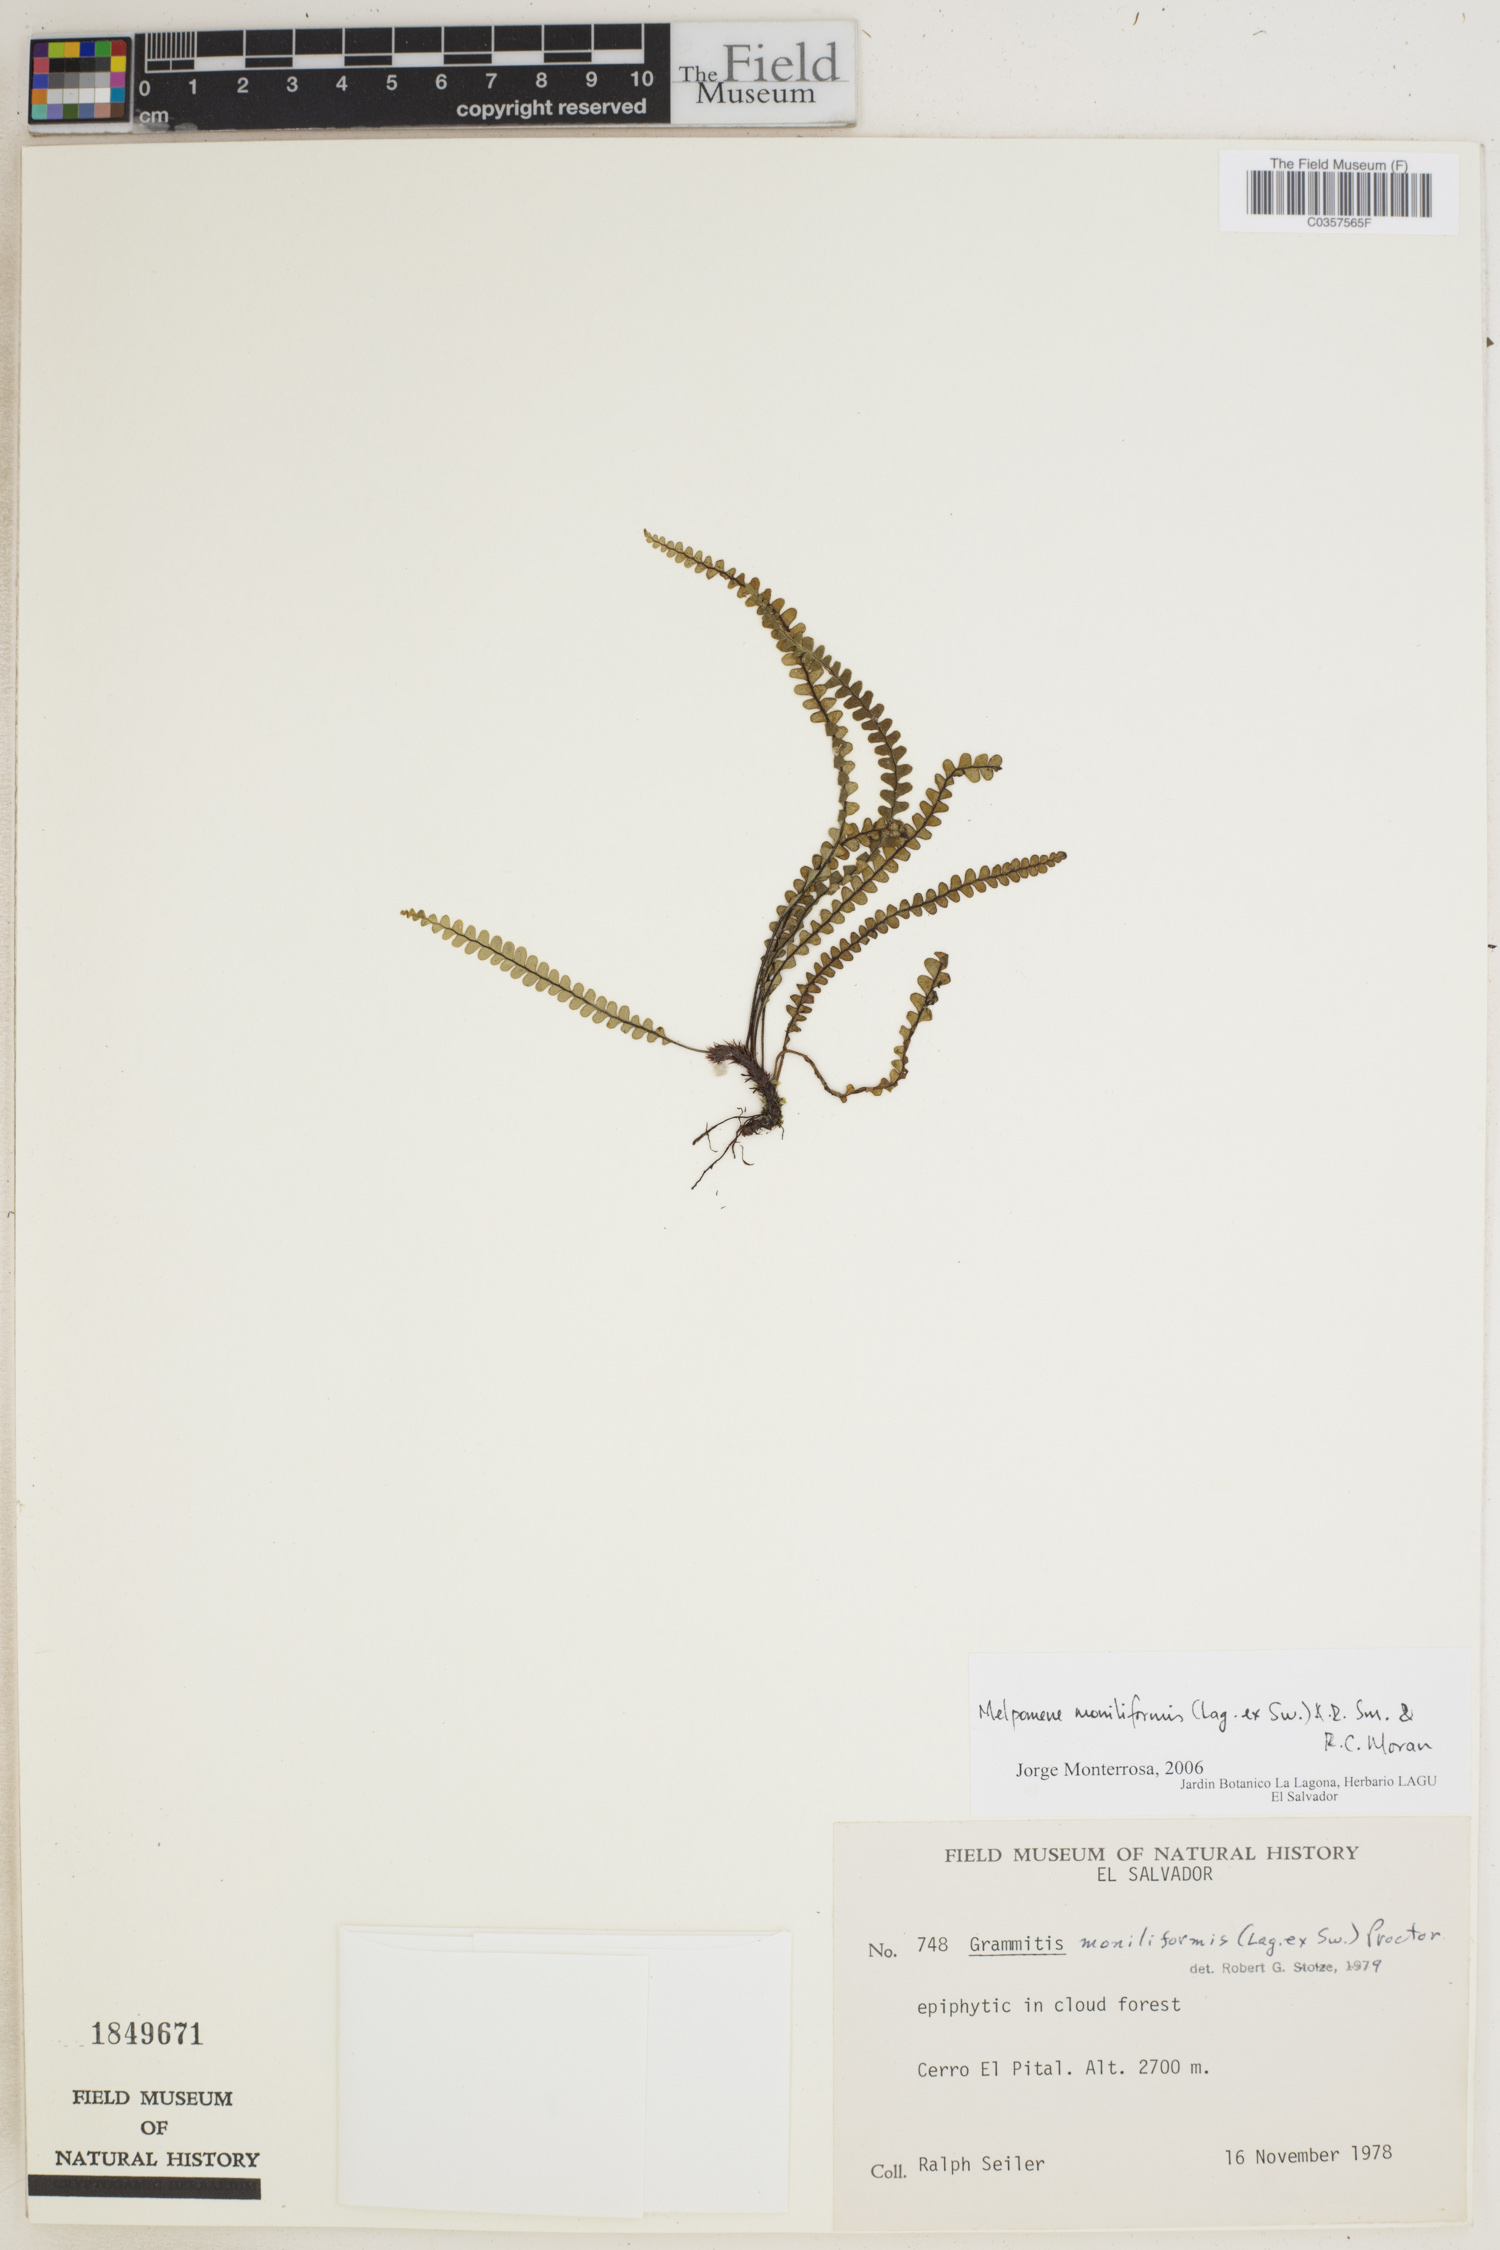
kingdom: Plantae
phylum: Tracheophyta
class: Polypodiopsida
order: Polypodiales
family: Polypodiaceae
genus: Melpomene
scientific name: Melpomene moniliformis
